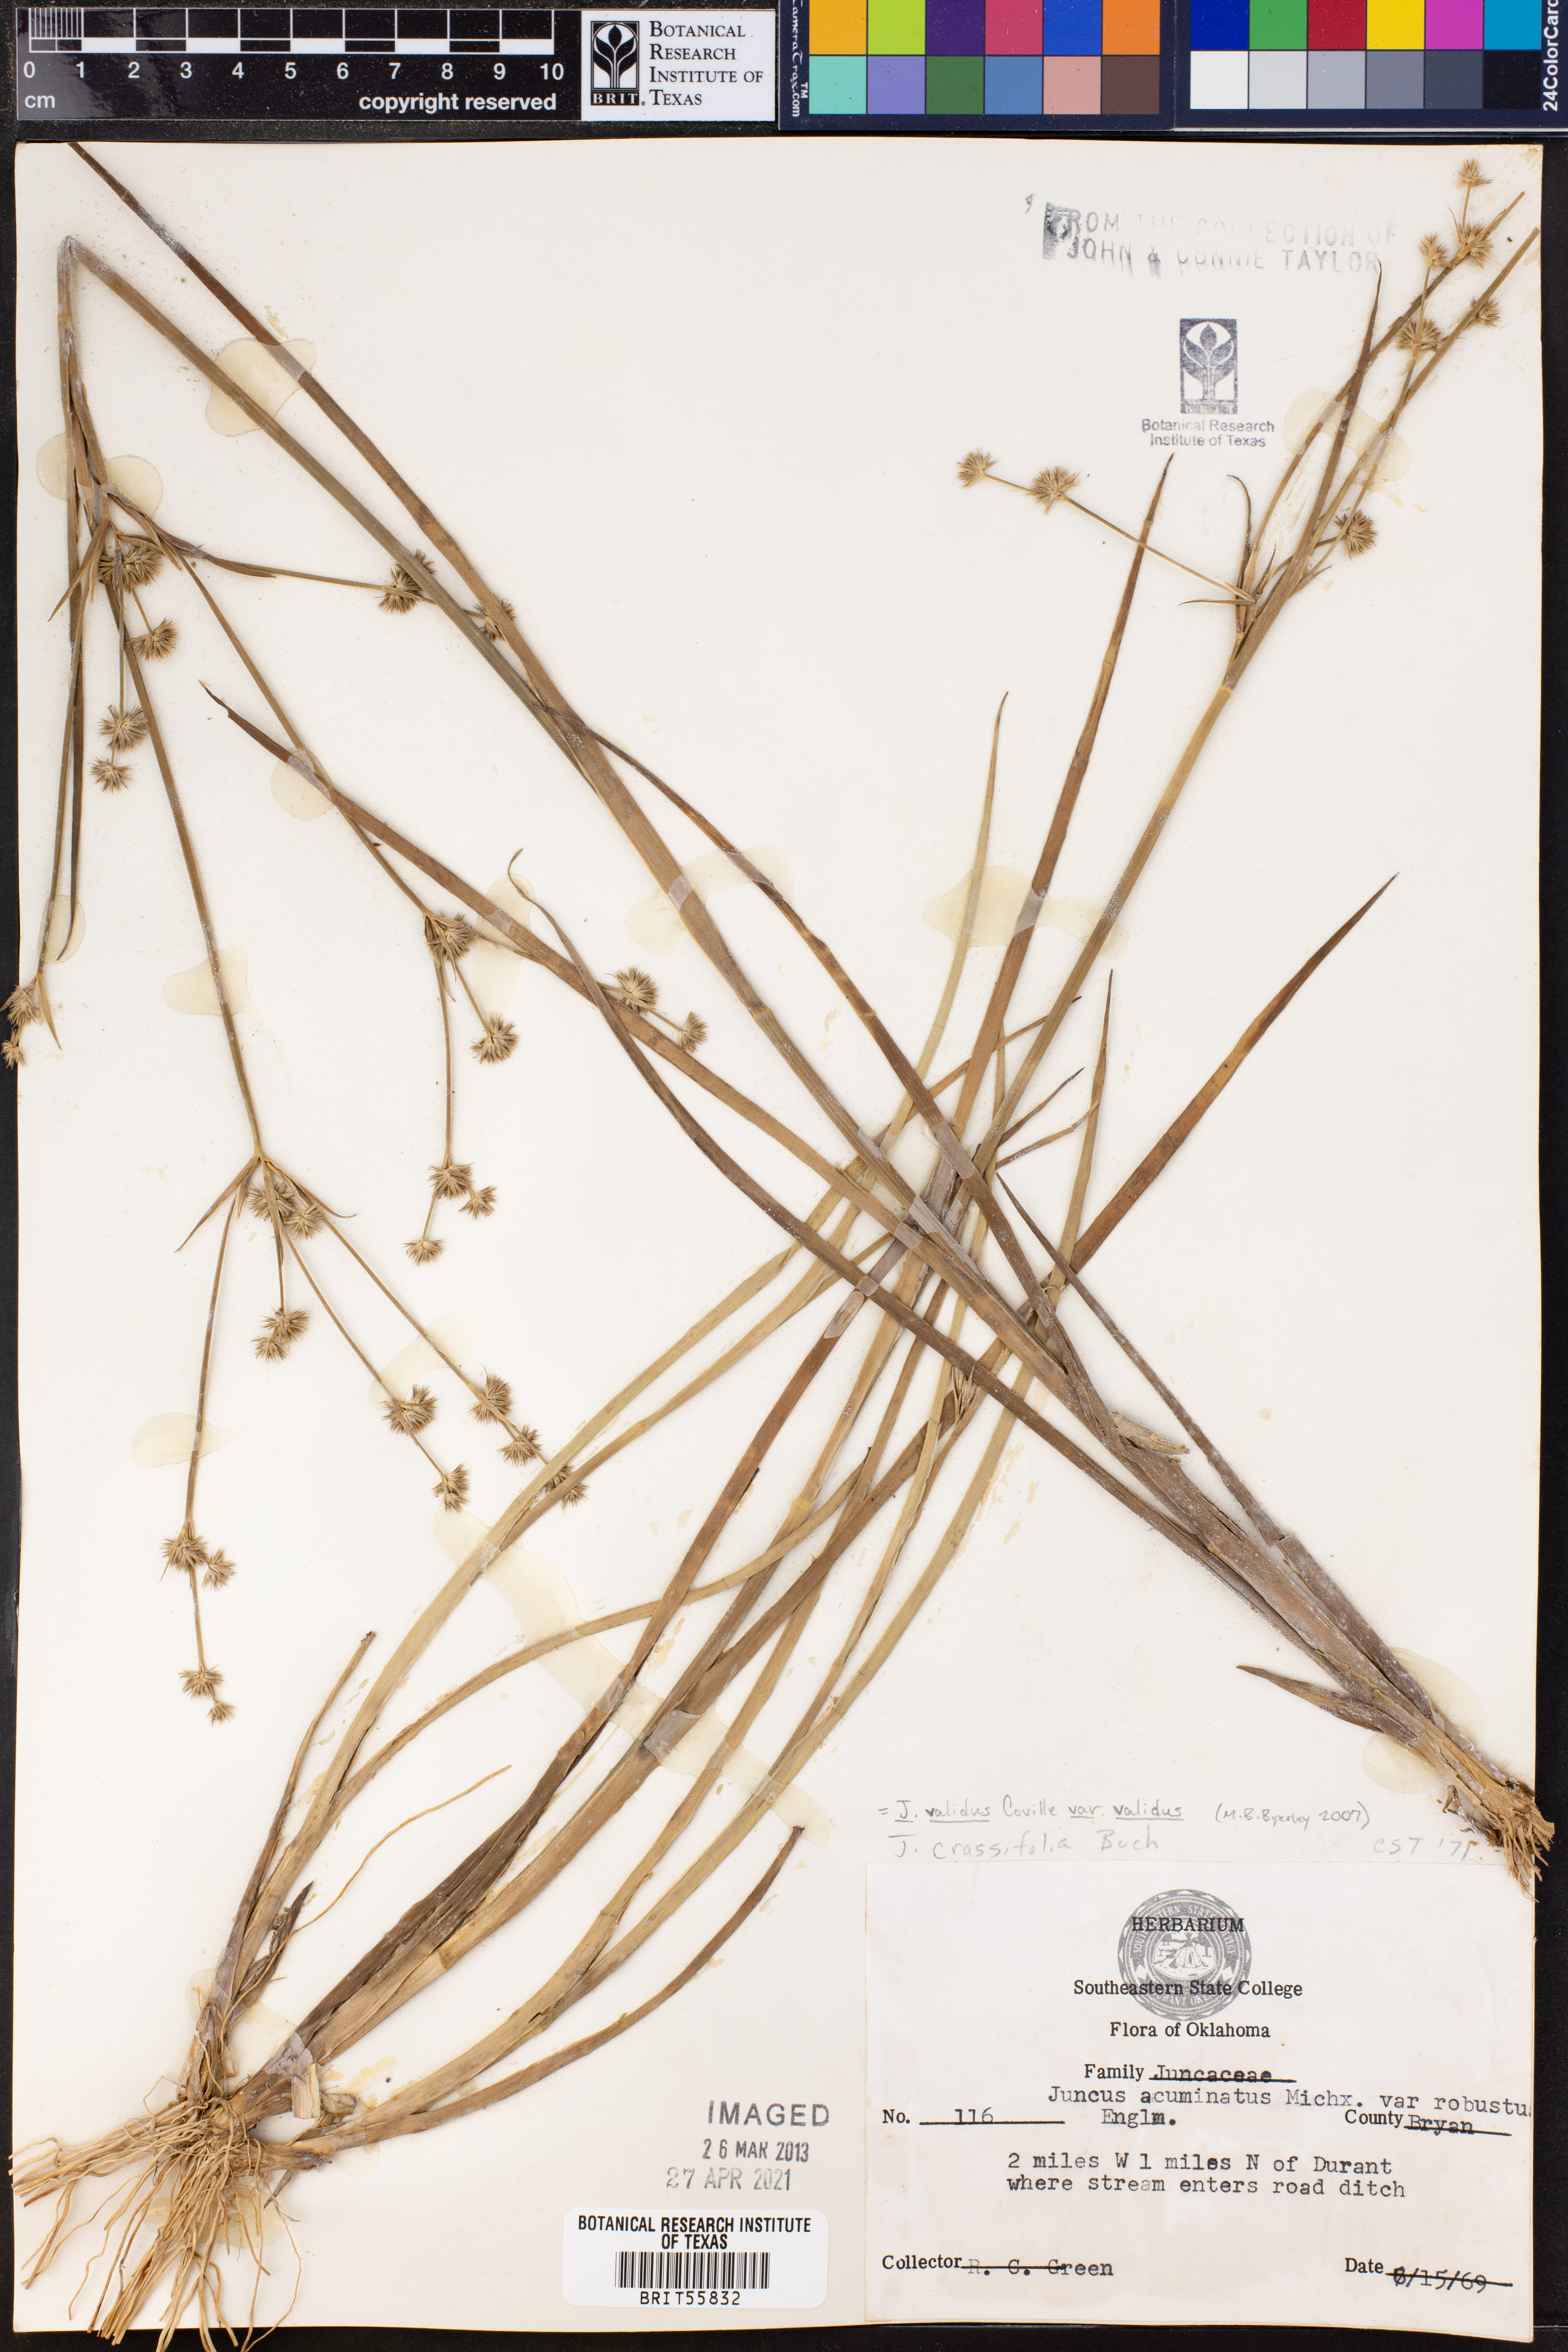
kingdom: Plantae
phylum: Tracheophyta
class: Liliopsida
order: Poales
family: Juncaceae
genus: Juncus
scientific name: Juncus validus
